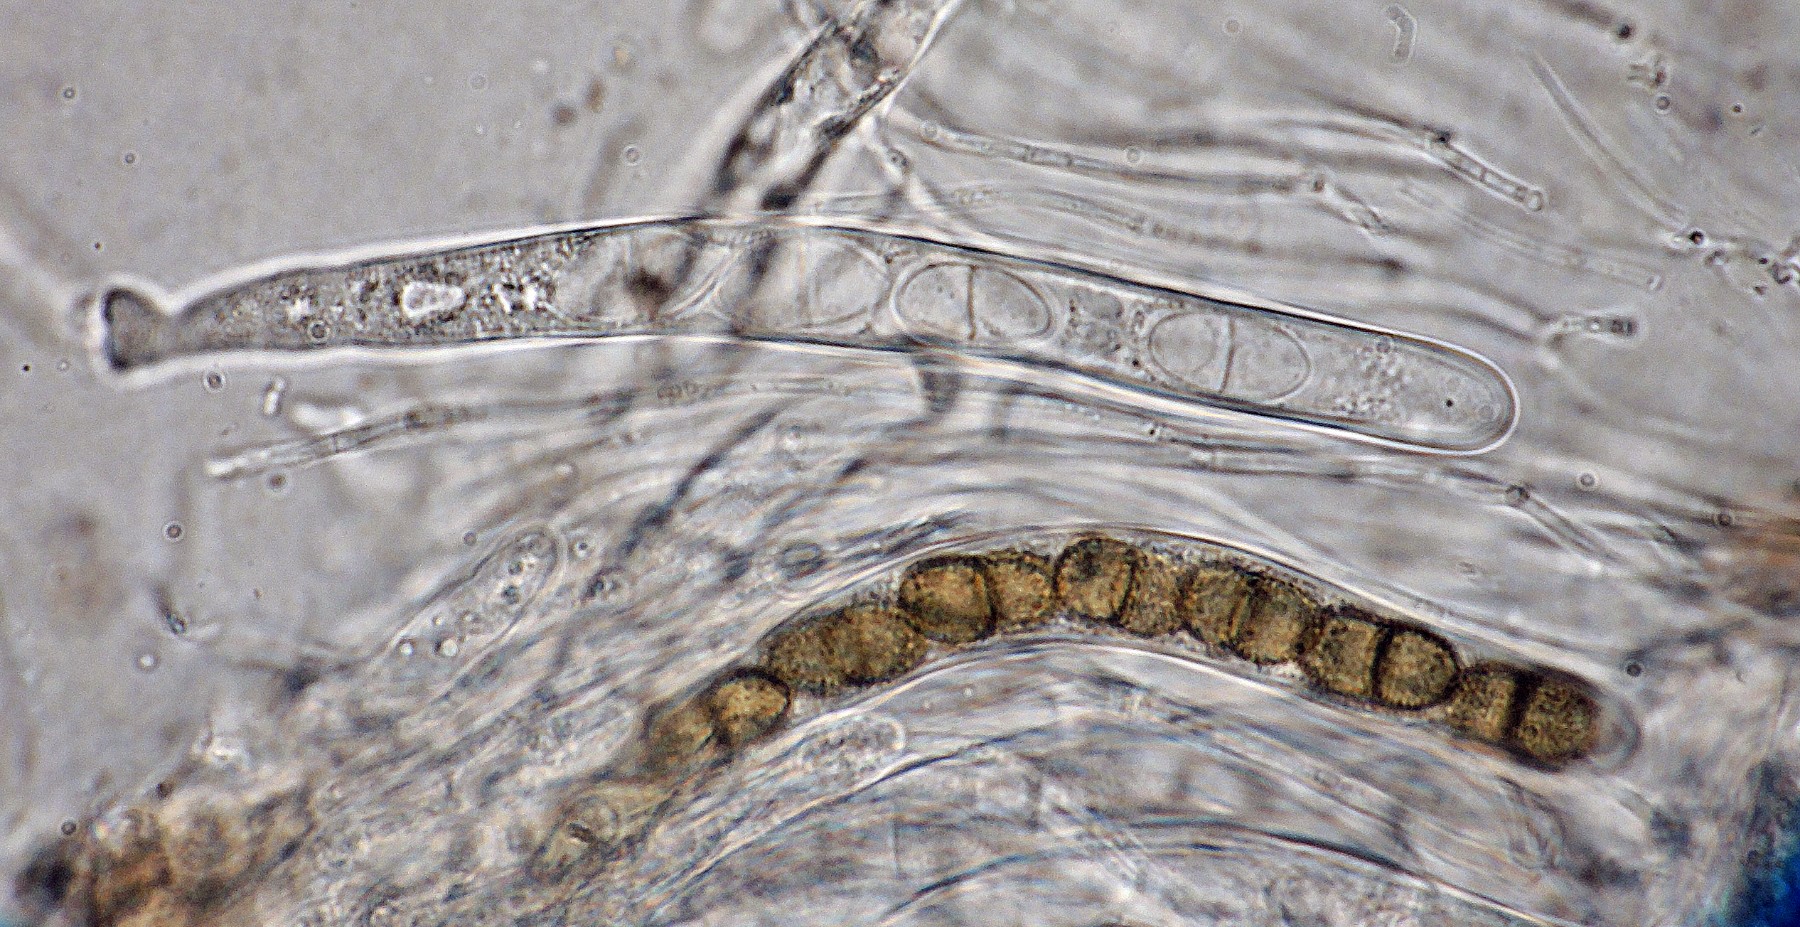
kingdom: Fungi
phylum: Ascomycota
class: Dothideomycetes
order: Pleosporales
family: Didymosphaeriaceae
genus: Didymosphaeria
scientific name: Didymosphaeria oblitescens
